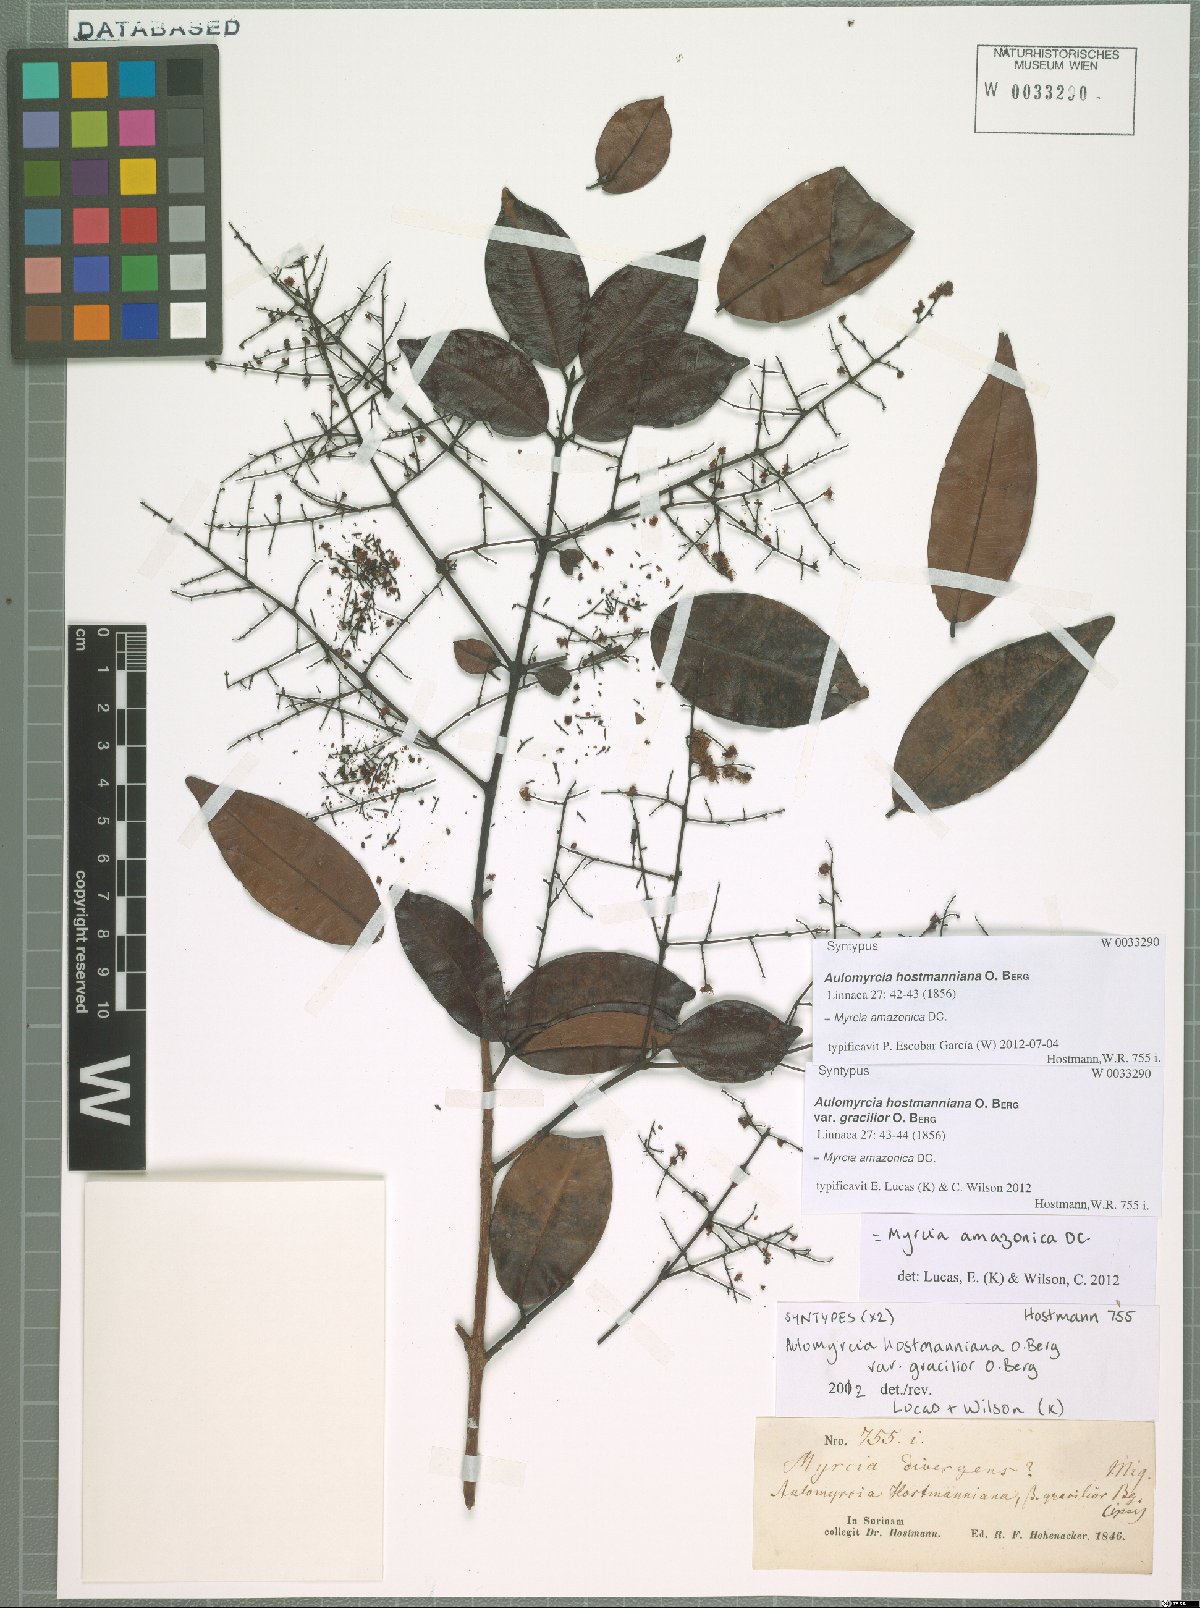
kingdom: Plantae
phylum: Tracheophyta
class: Magnoliopsida
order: Myrtales
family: Myrtaceae
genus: Myrcia
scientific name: Myrcia amazonica
